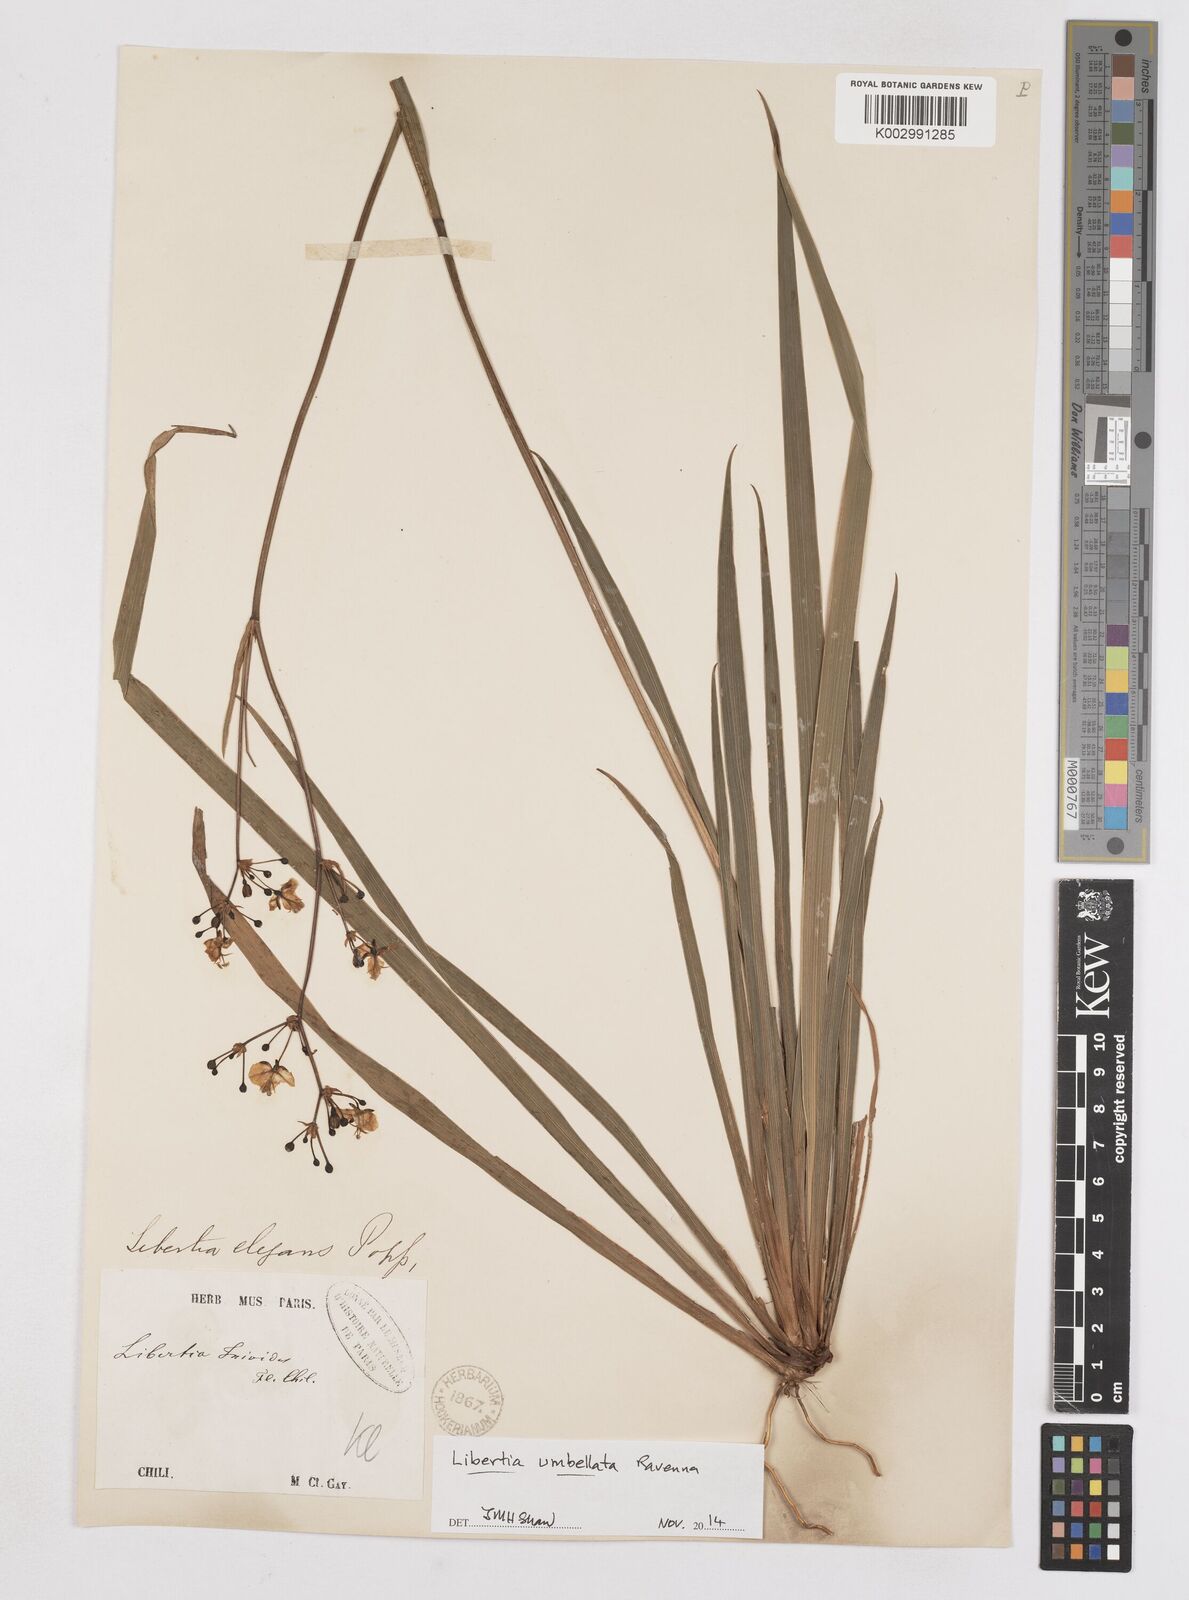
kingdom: Plantae
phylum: Tracheophyta
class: Liliopsida
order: Asparagales
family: Iridaceae
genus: Libertia
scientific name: Libertia umbellata
